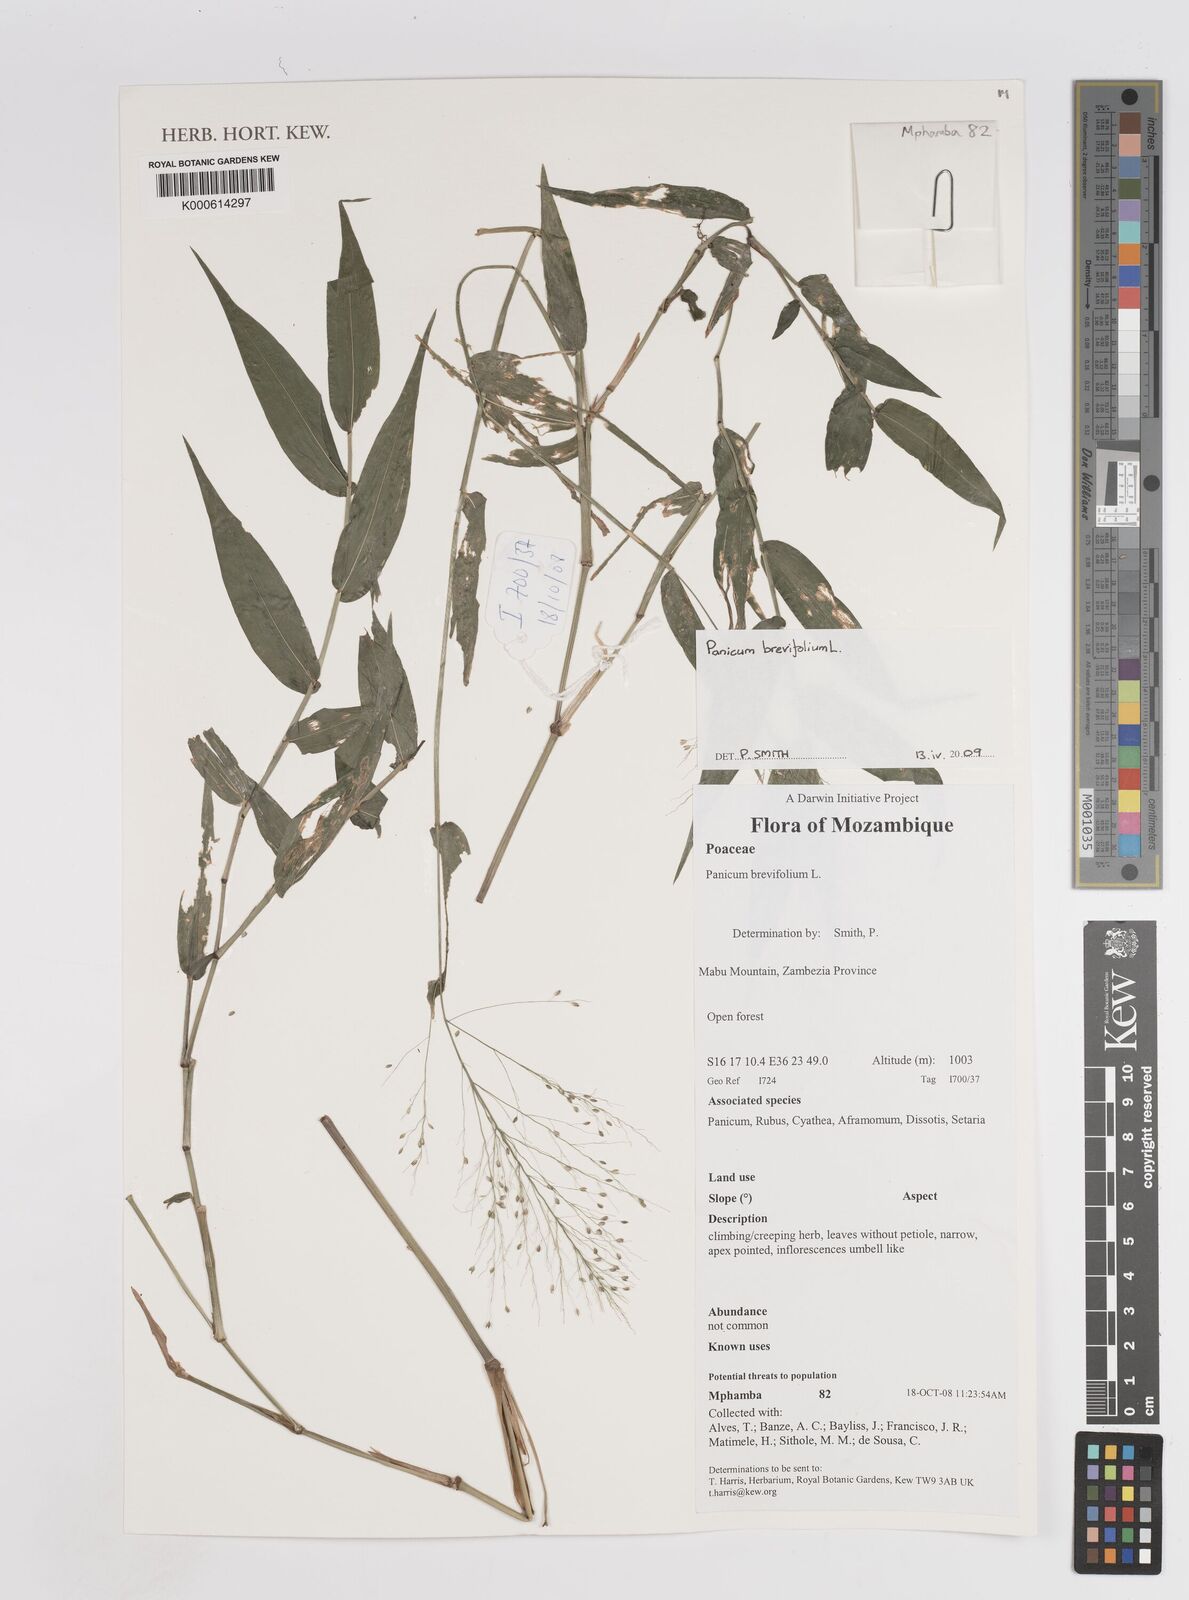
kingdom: Plantae
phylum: Tracheophyta
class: Liliopsida
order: Poales
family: Poaceae
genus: Panicum
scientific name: Panicum brevifolium
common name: Shortleaf panic grass
